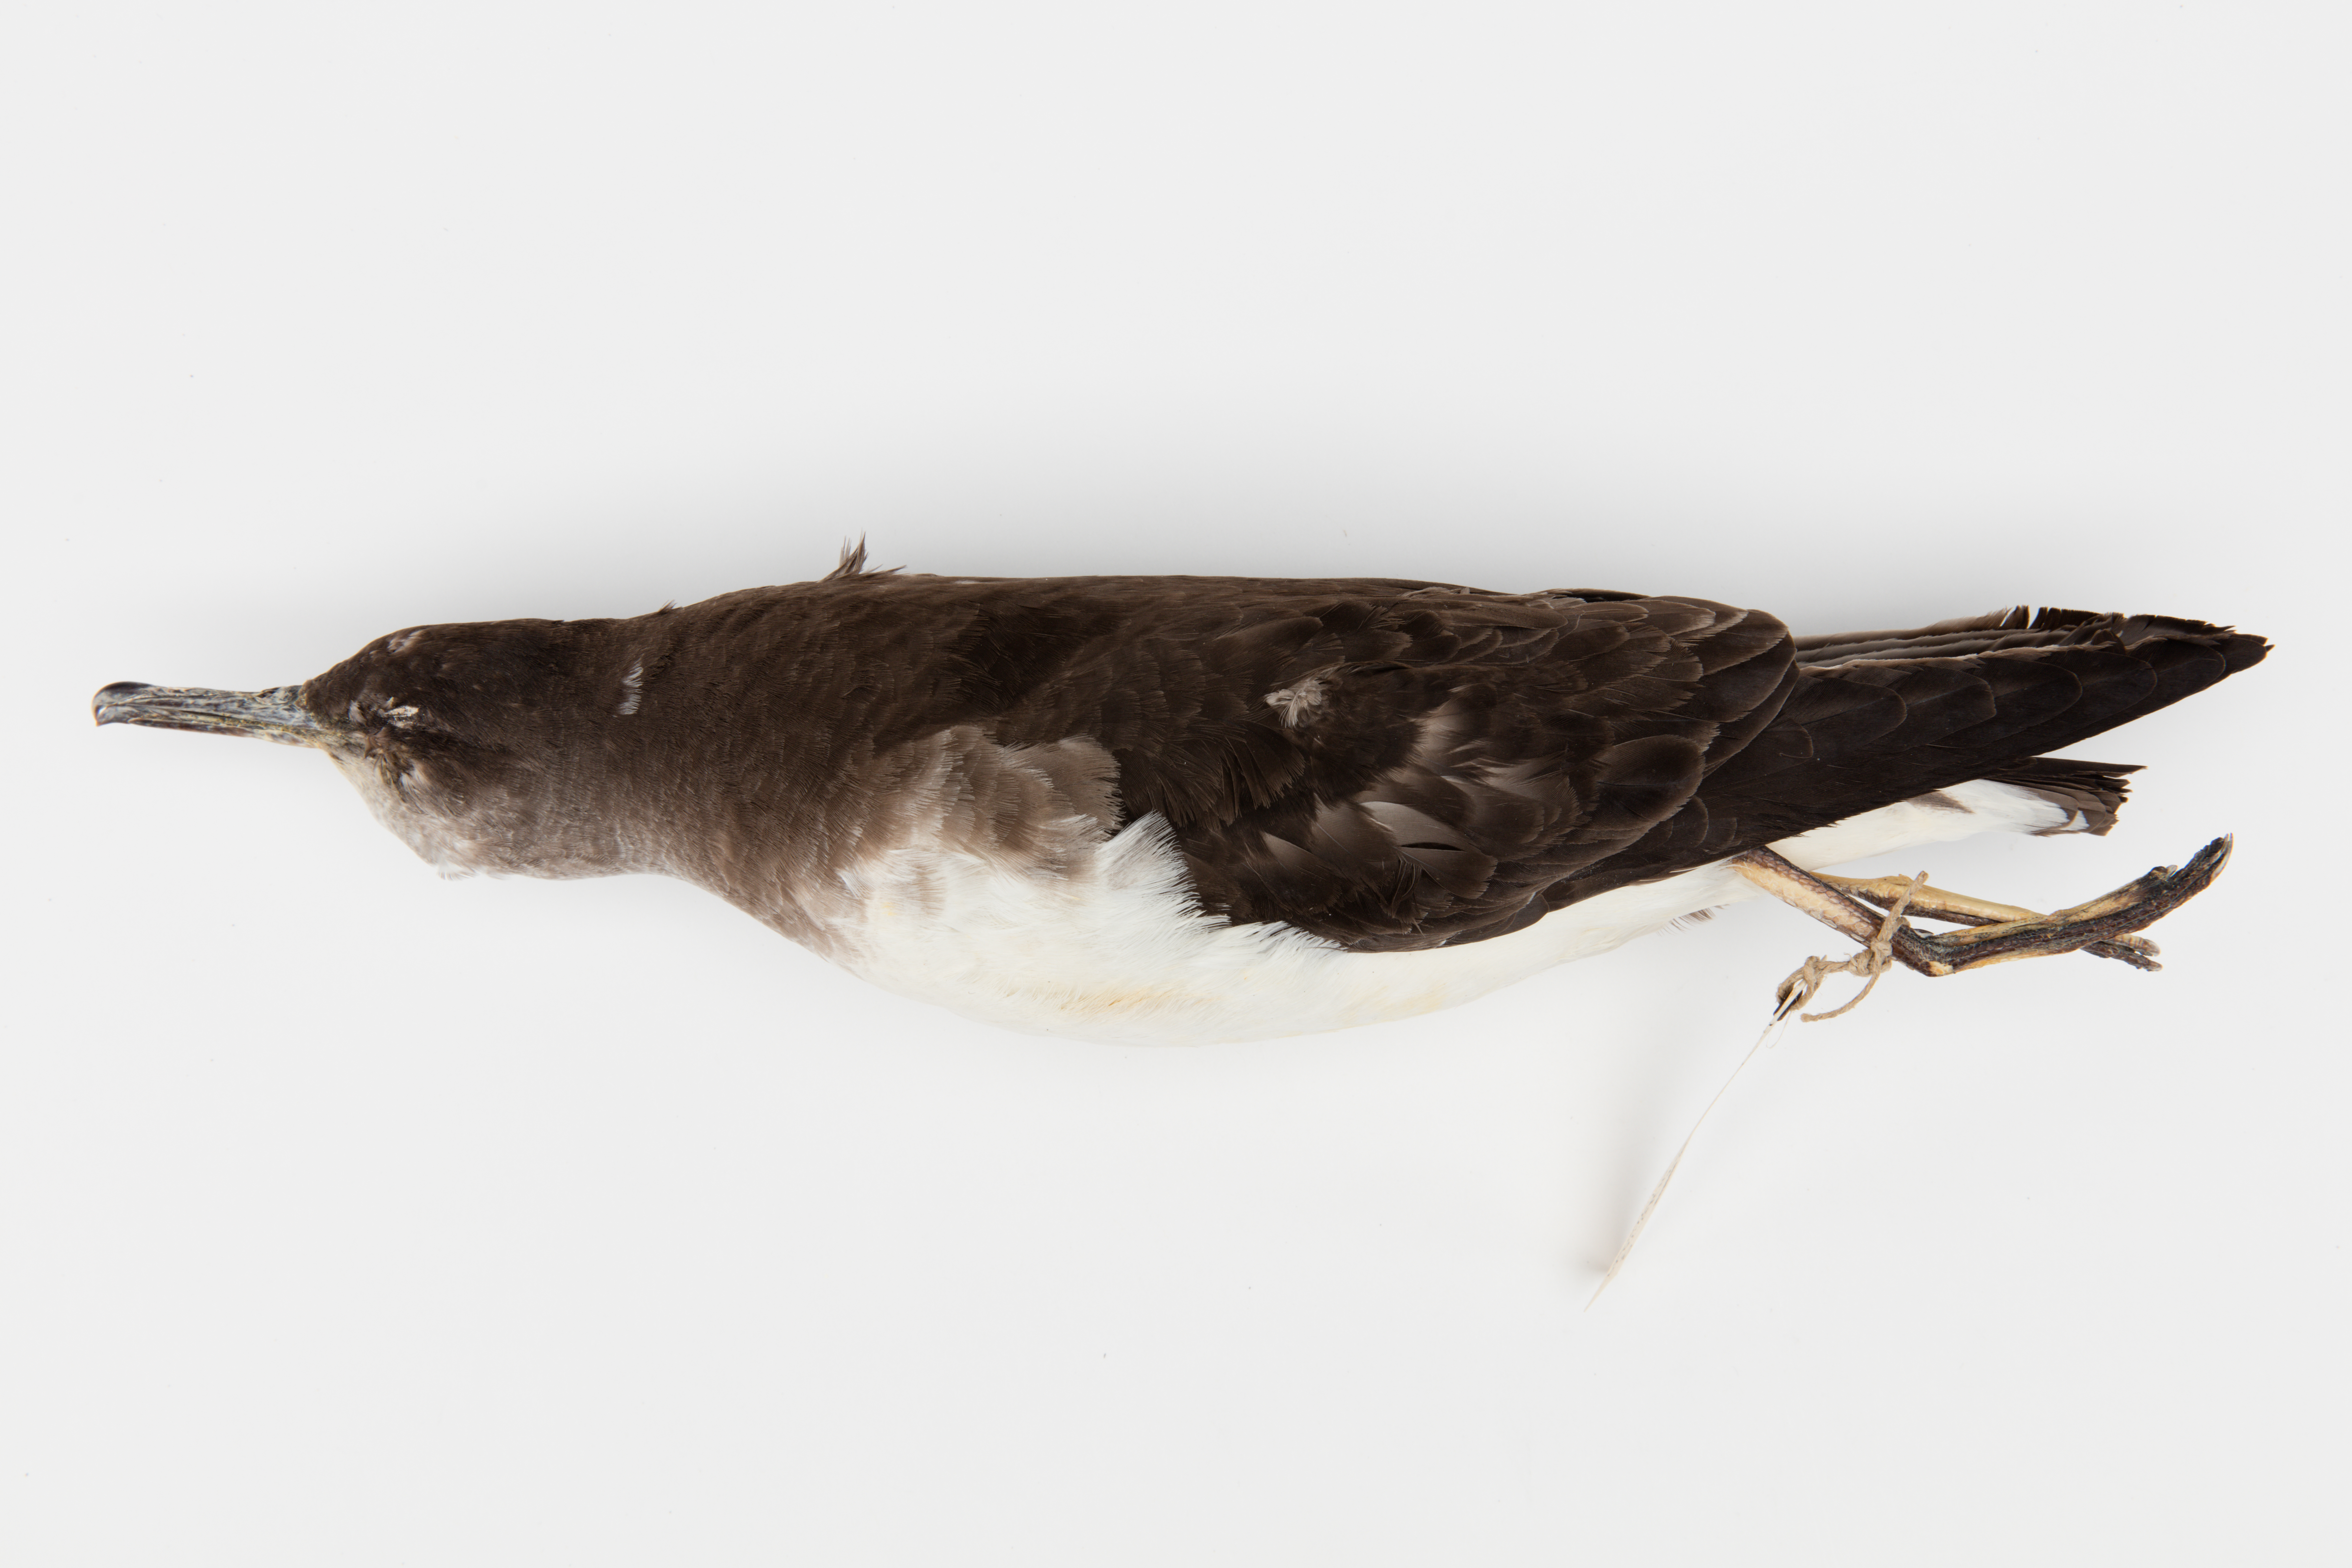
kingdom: Animalia
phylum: Chordata
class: Aves
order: Procellariiformes
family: Procellariidae
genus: Puffinus
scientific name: Puffinus huttoni
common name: Hutton's shearwater
